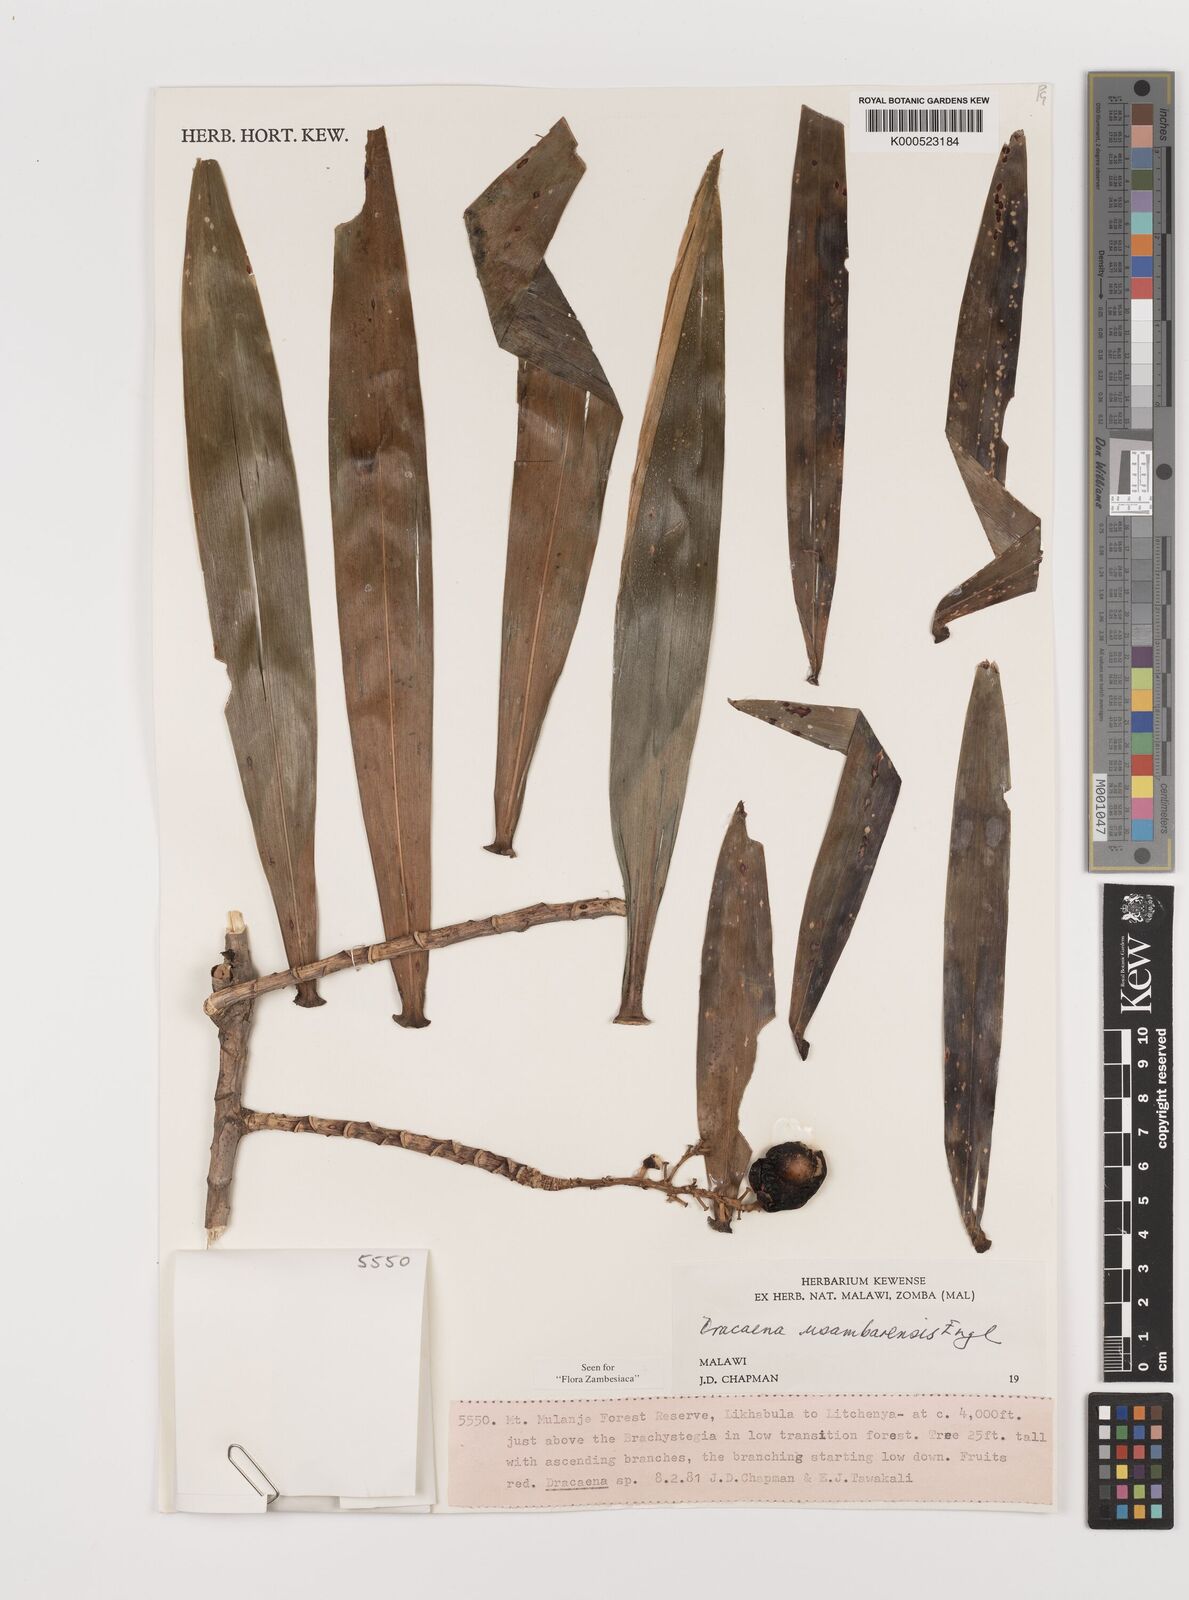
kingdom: Plantae
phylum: Tracheophyta
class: Liliopsida
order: Asparagales
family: Asparagaceae
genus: Dracaena
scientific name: Dracaena usambarensis
